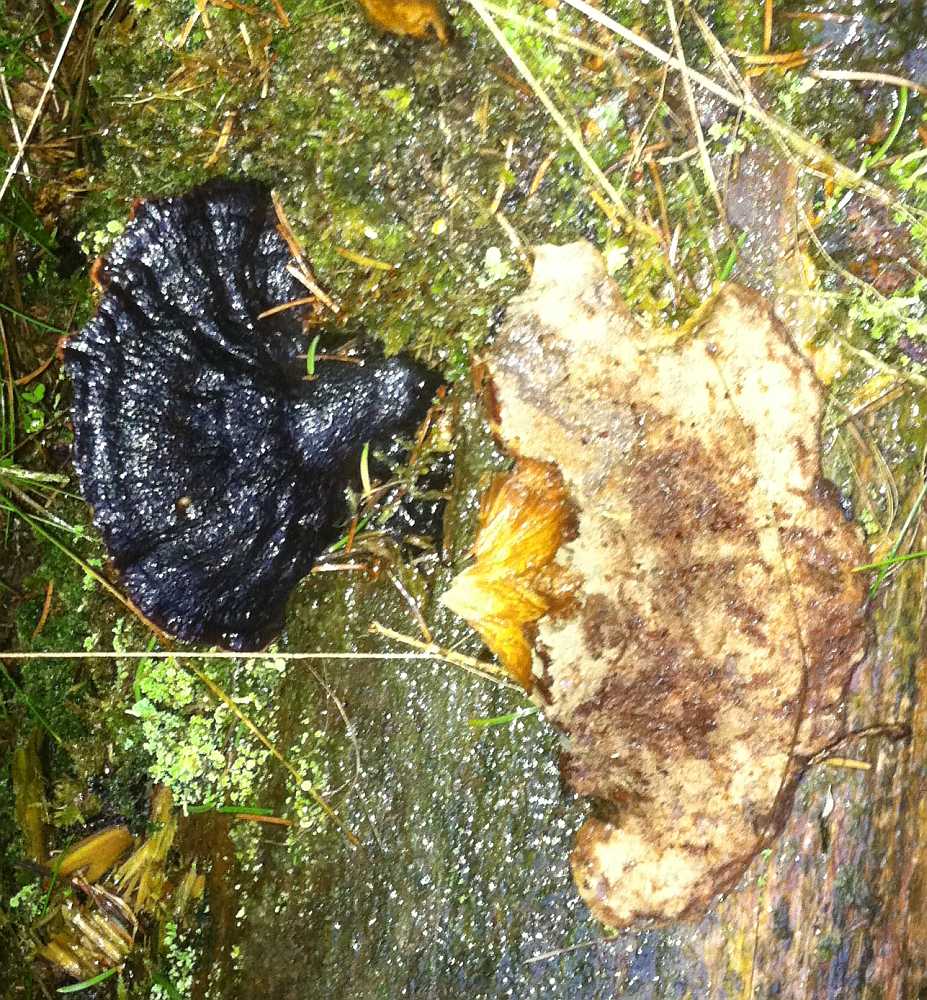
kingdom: Fungi
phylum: Basidiomycota
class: Agaricomycetes
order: Polyporales
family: Ischnodermataceae
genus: Ischnoderma
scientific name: Ischnoderma benzoinum
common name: gran-tjæreporesvamp
